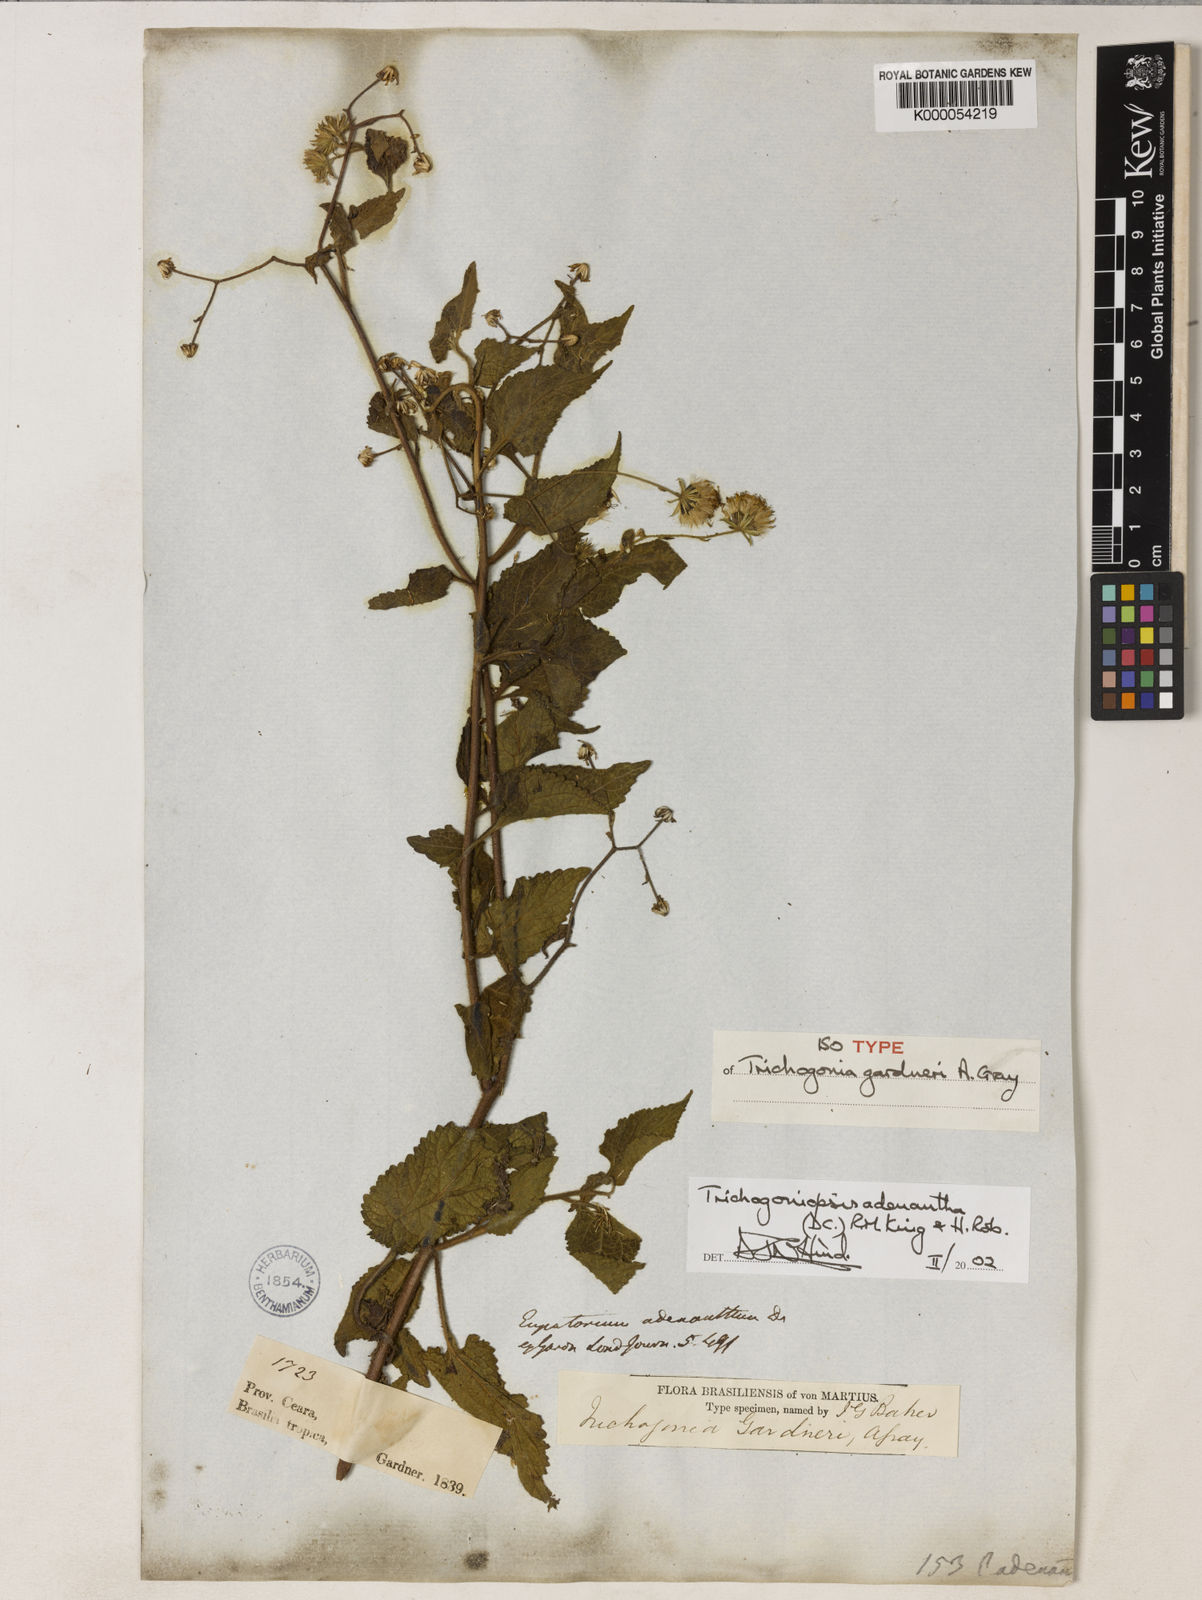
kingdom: Plantae
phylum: Tracheophyta
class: Magnoliopsida
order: Asterales
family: Asteraceae
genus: Trichogoniopsis
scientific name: Trichogoniopsis adenantha
